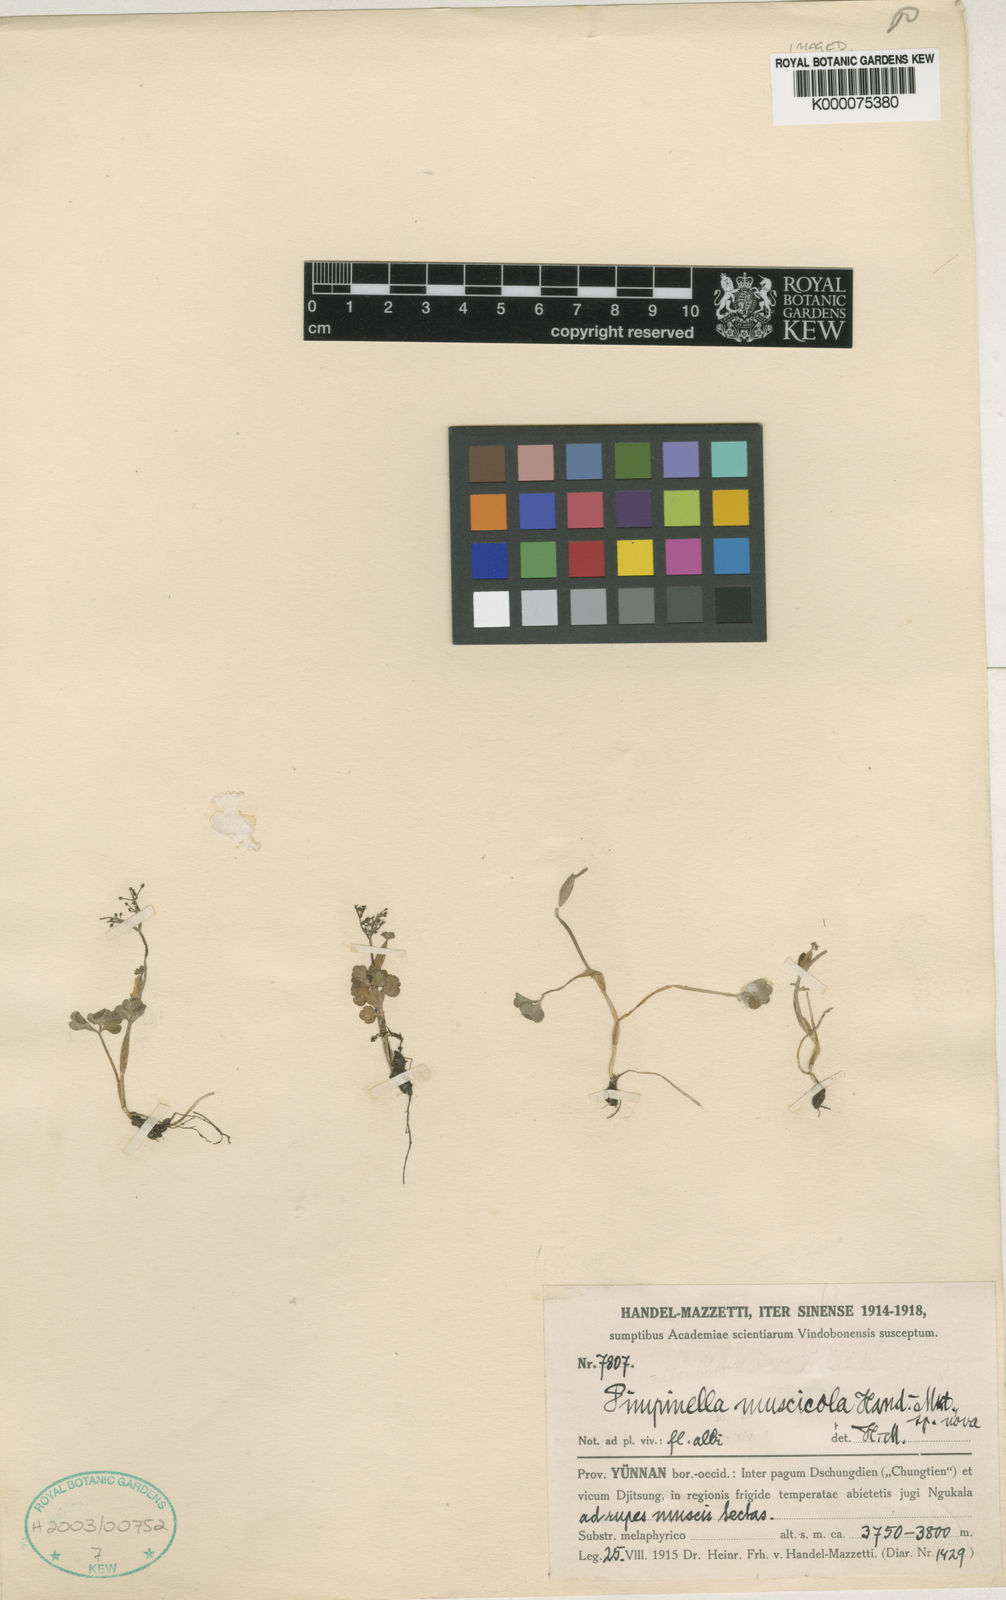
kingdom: Plantae
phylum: Tracheophyta
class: Magnoliopsida
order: Apiales
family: Apiaceae
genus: Acronema
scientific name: Acronema muscicola
